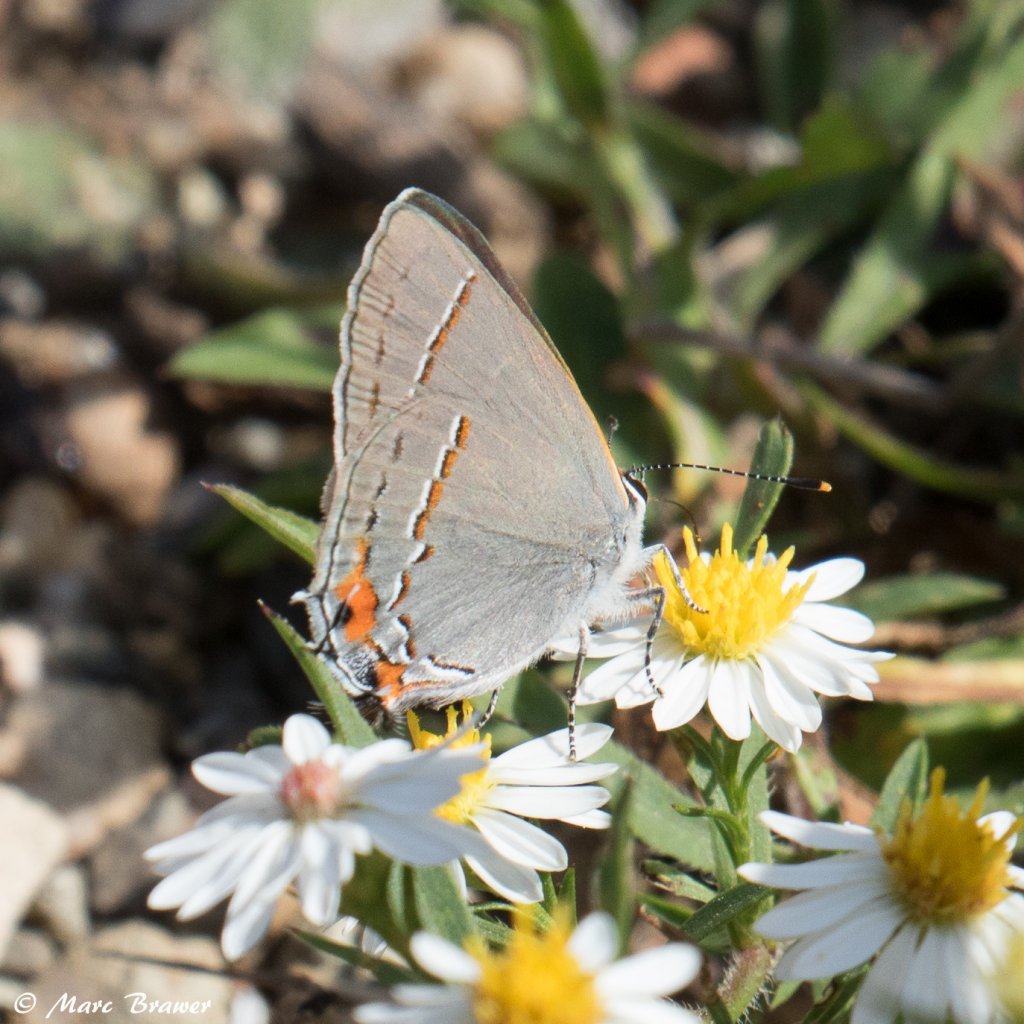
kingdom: Animalia
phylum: Arthropoda
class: Insecta
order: Lepidoptera
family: Lycaenidae
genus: Calycopis
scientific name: Calycopis cecrops
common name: Red-banded Hairstreak
